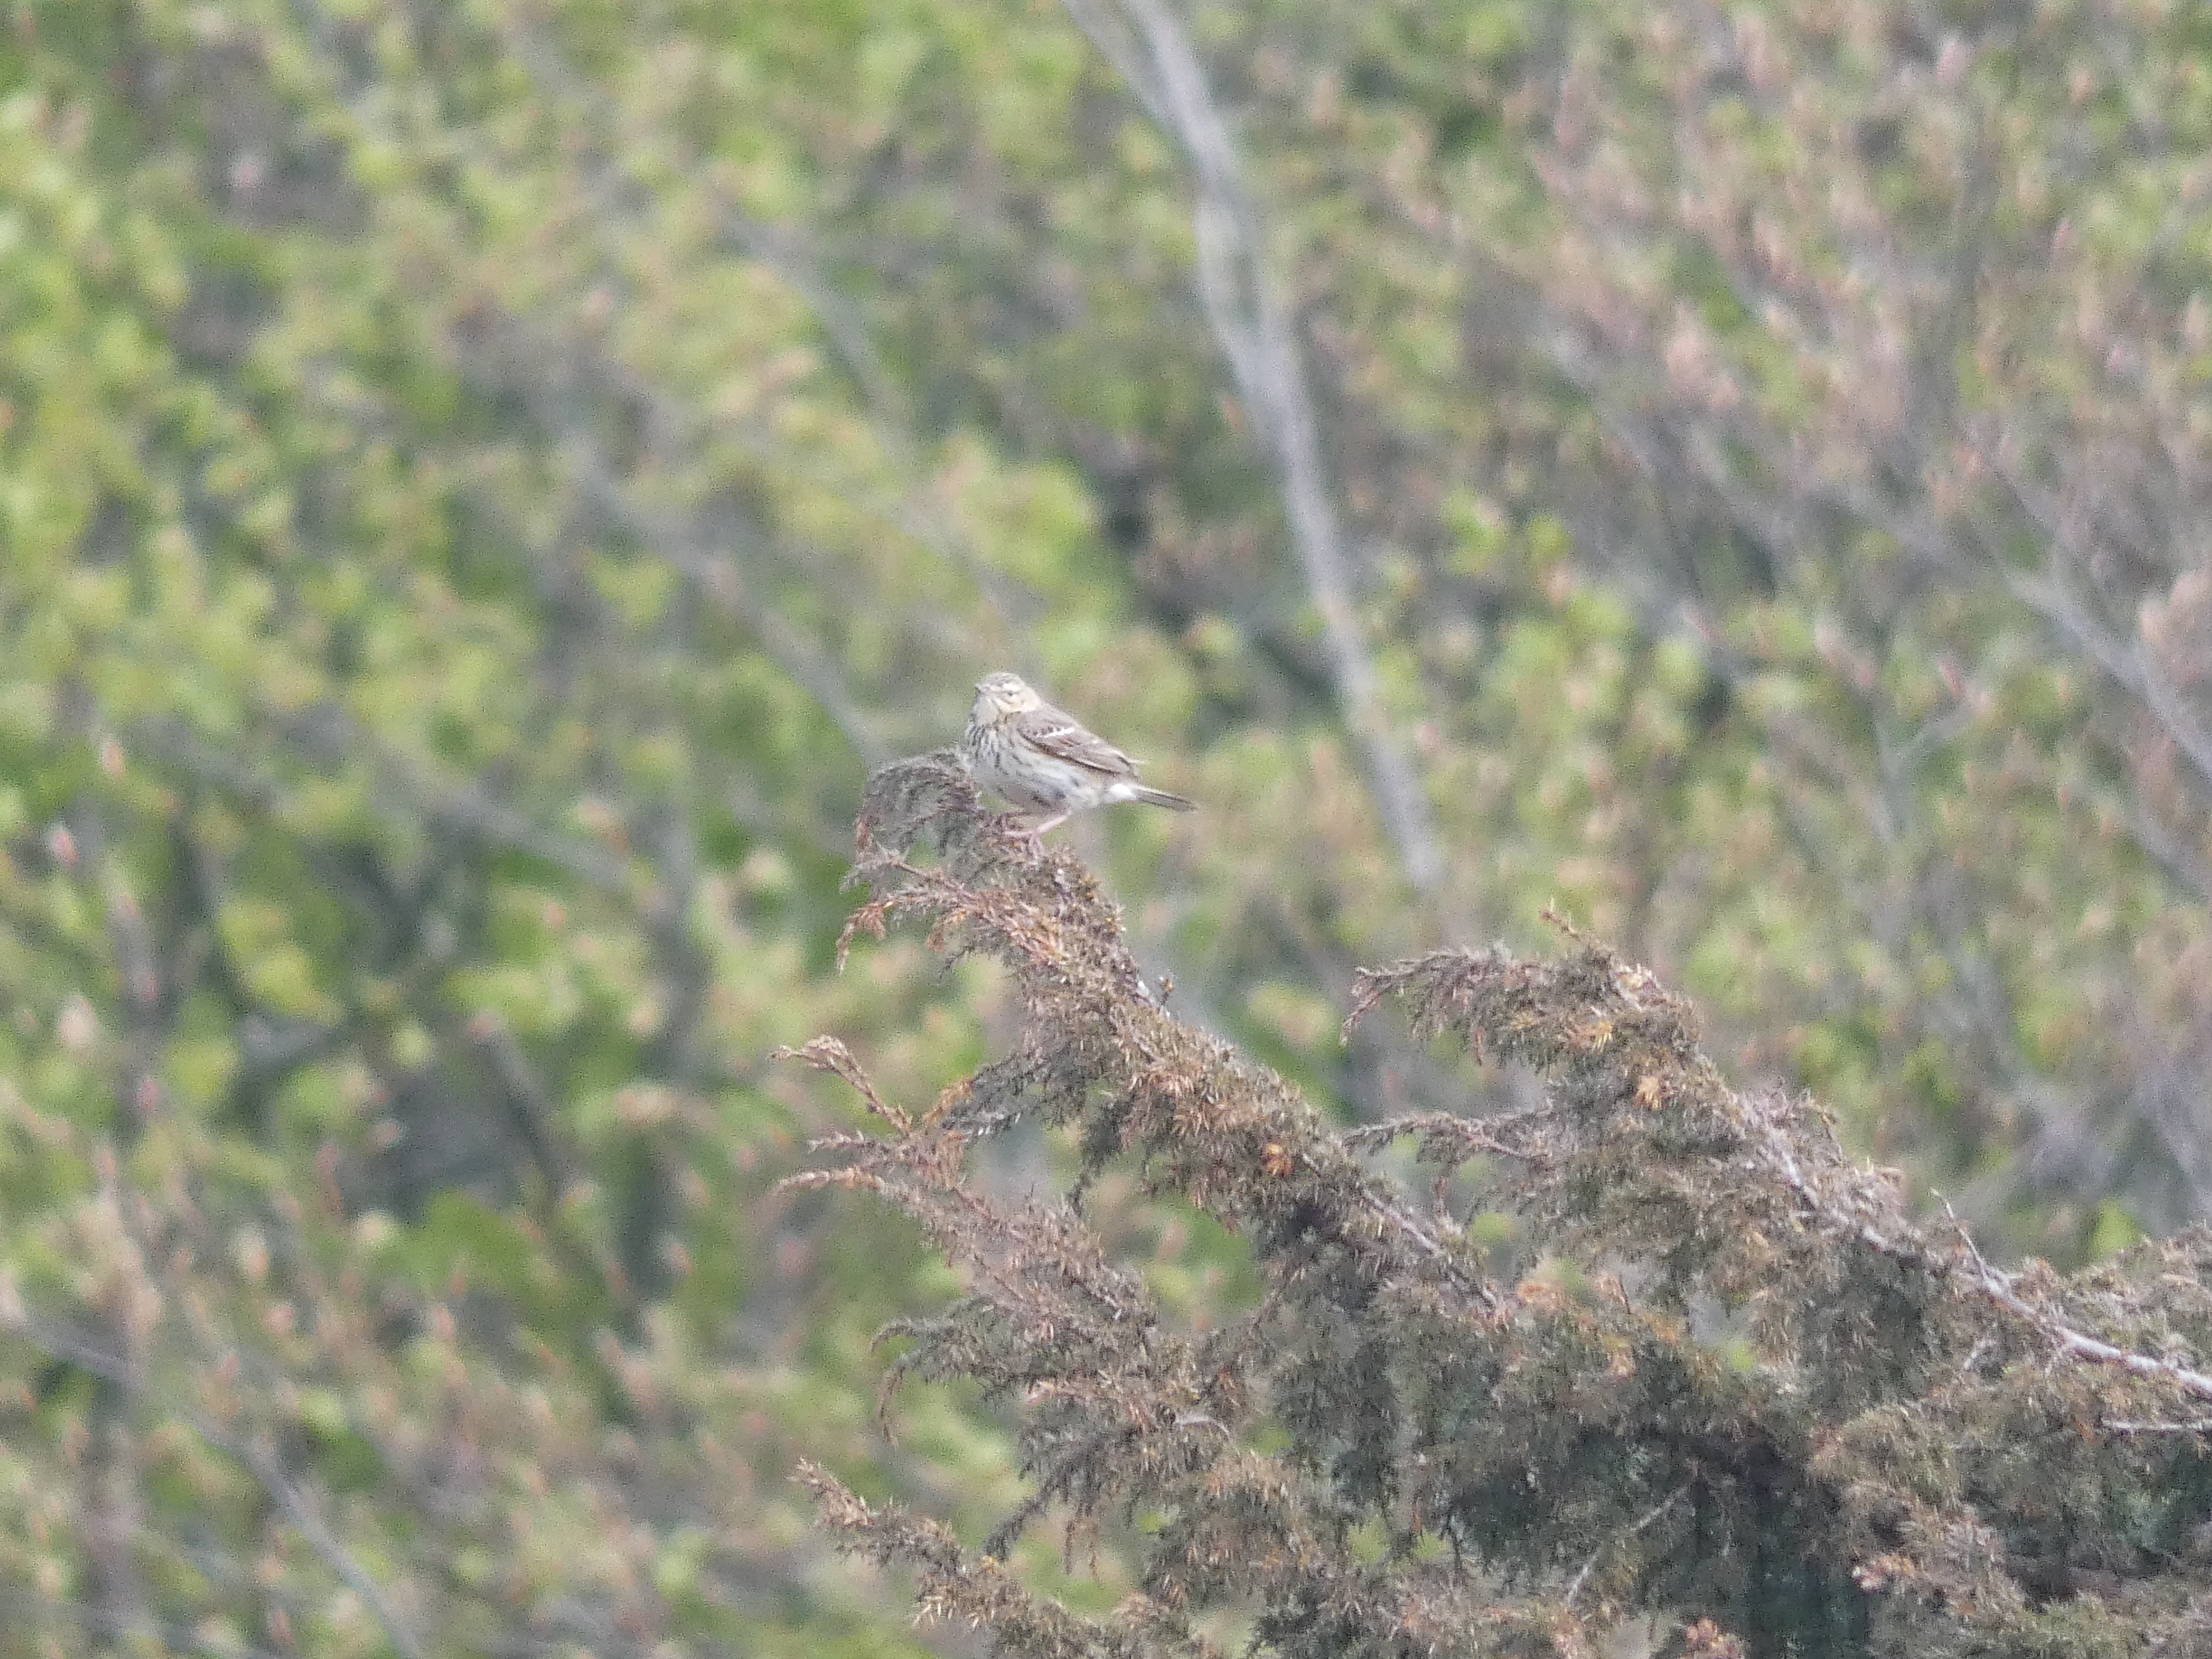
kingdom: Animalia
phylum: Chordata
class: Aves
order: Passeriformes
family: Motacillidae
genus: Anthus
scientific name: Anthus pratensis
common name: Engpiber
